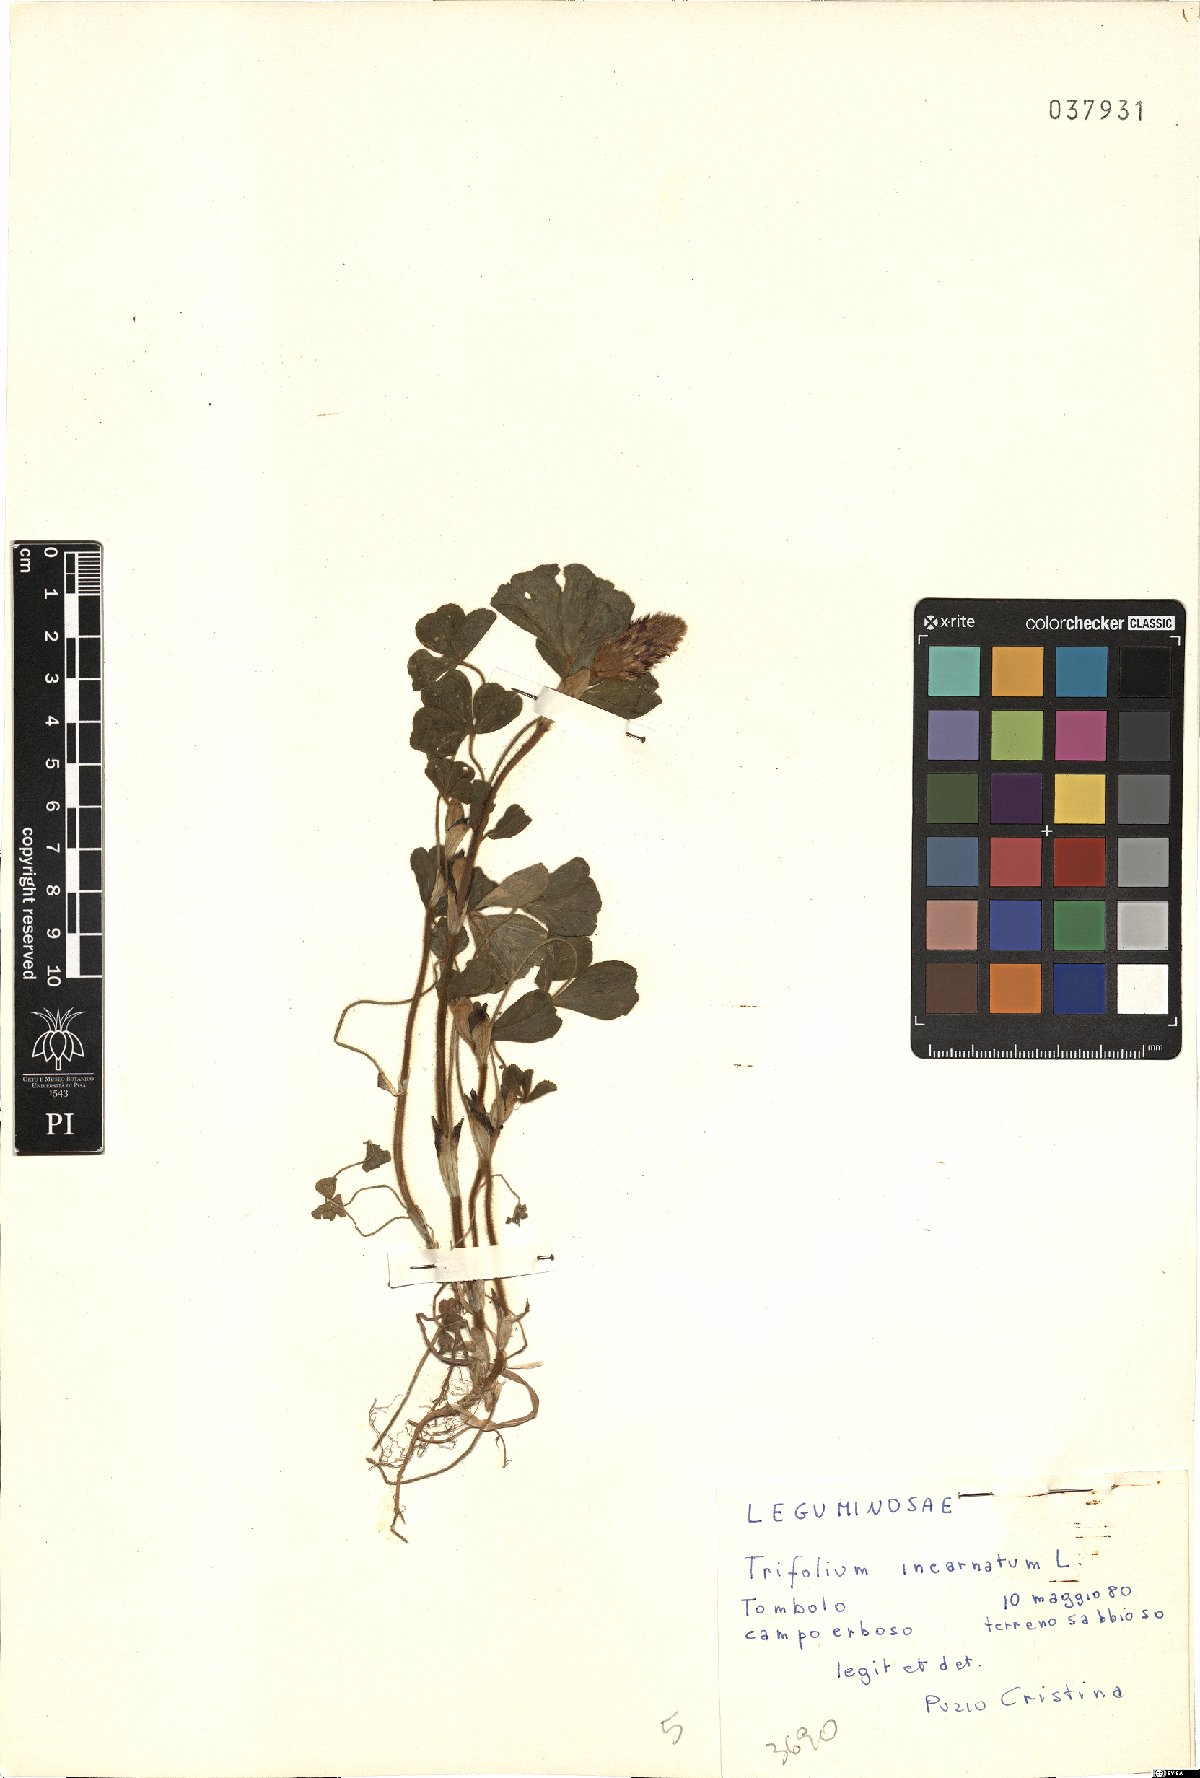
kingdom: Plantae
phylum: Tracheophyta
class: Magnoliopsida
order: Fabales
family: Fabaceae
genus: Trifolium
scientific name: Trifolium incarnatum
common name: Crimson clover
